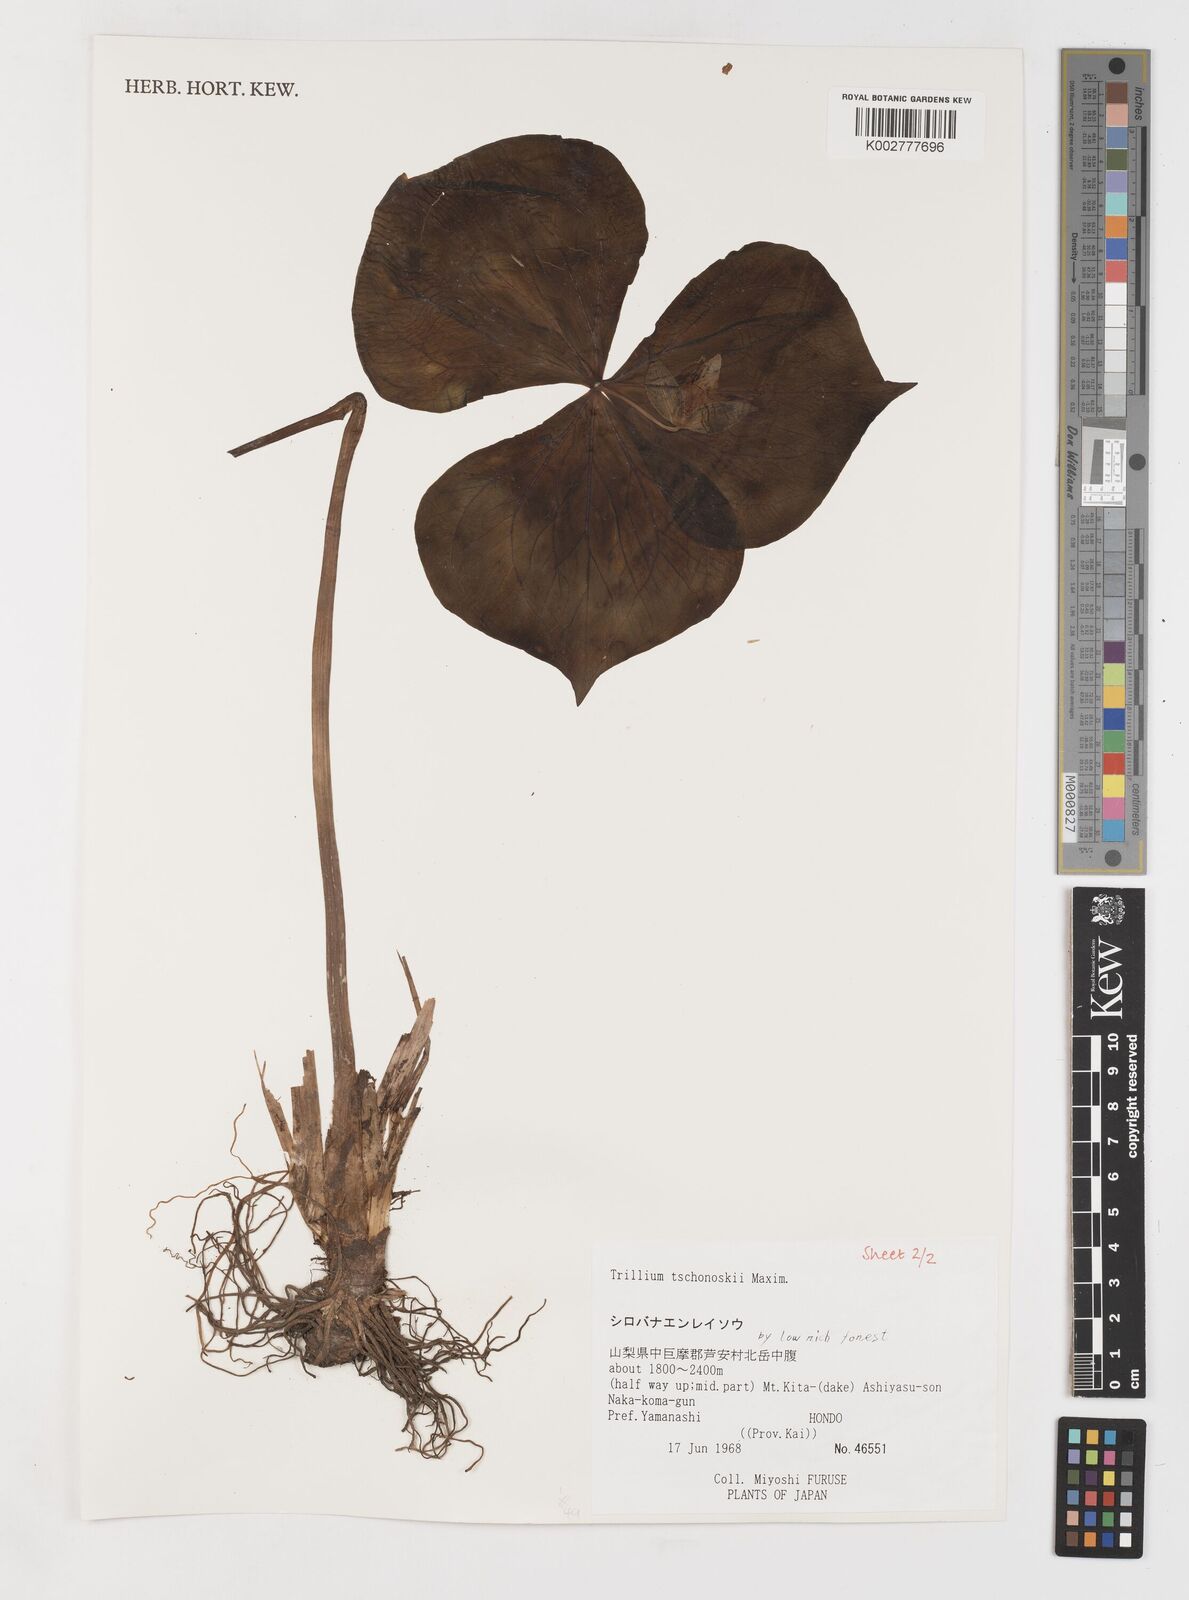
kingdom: Plantae
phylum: Tracheophyta
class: Liliopsida
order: Liliales
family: Melanthiaceae
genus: Trillium
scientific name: Trillium tschonoskii
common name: A pearl on head
